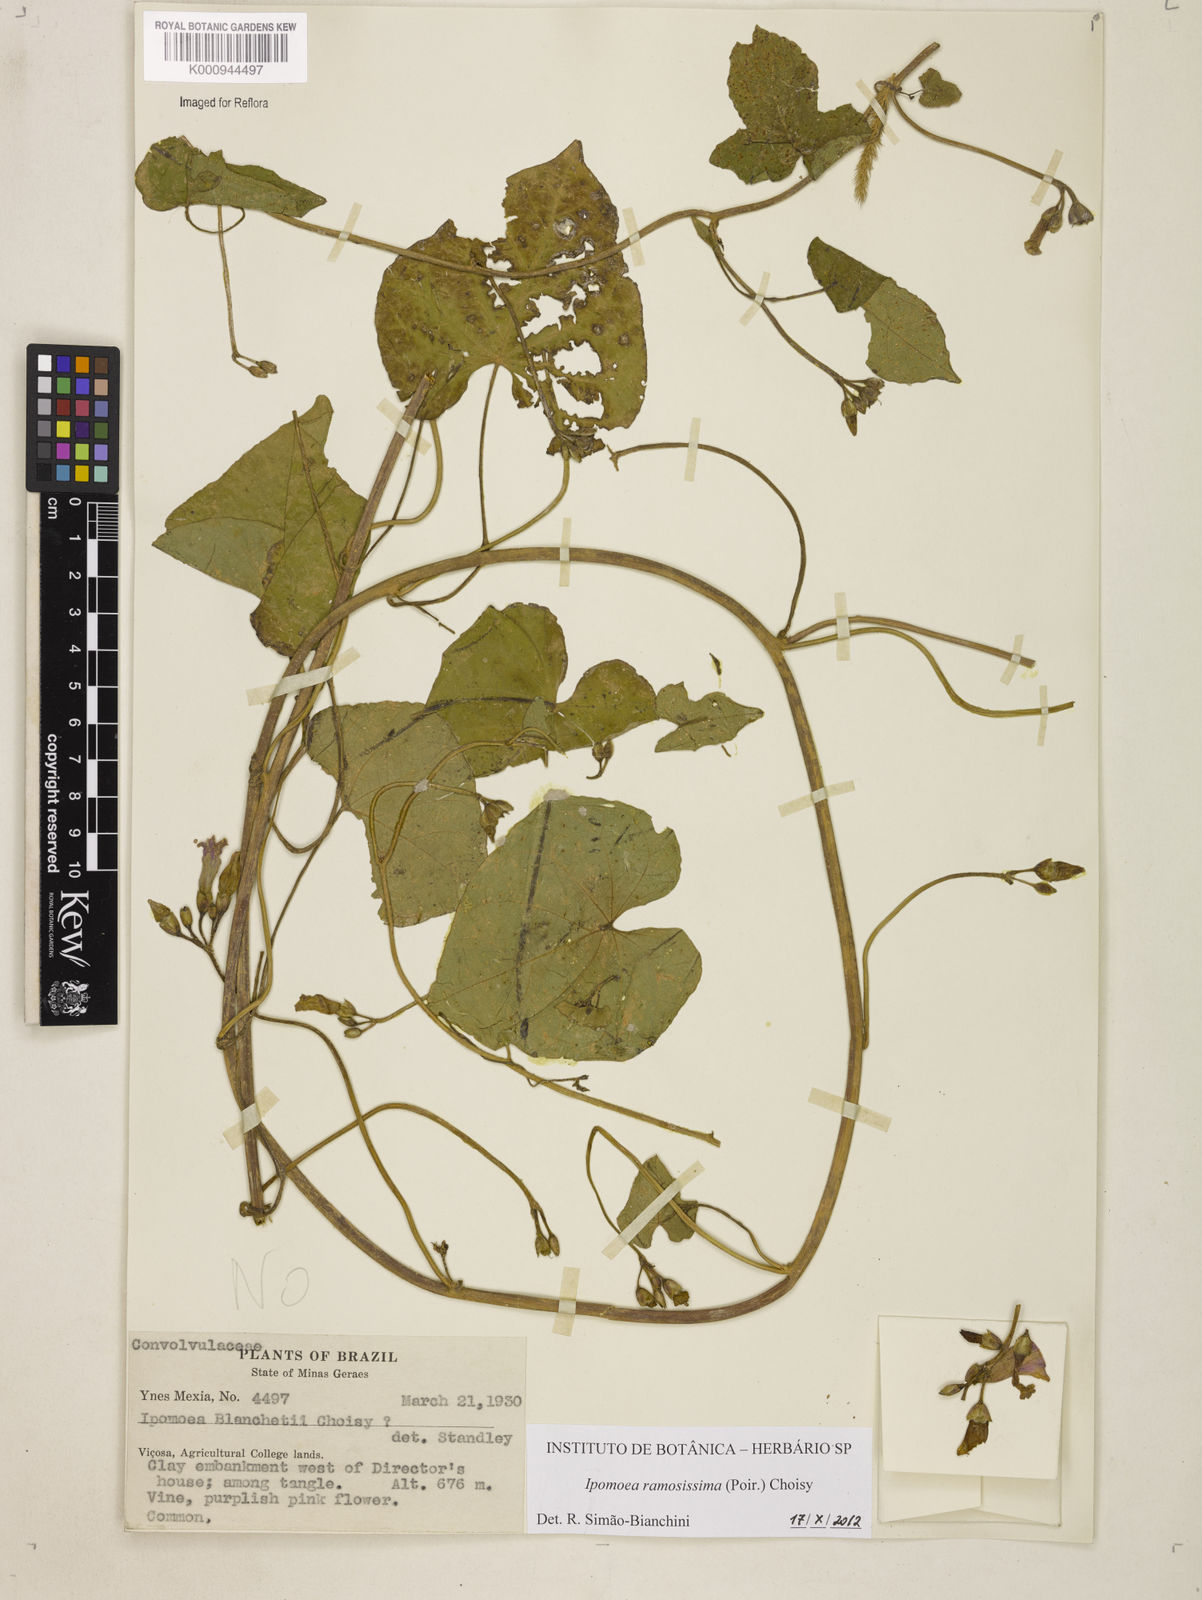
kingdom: Plantae
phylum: Tracheophyta
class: Magnoliopsida
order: Solanales
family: Convolvulaceae
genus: Ipomoea
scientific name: Ipomoea ramosissima
